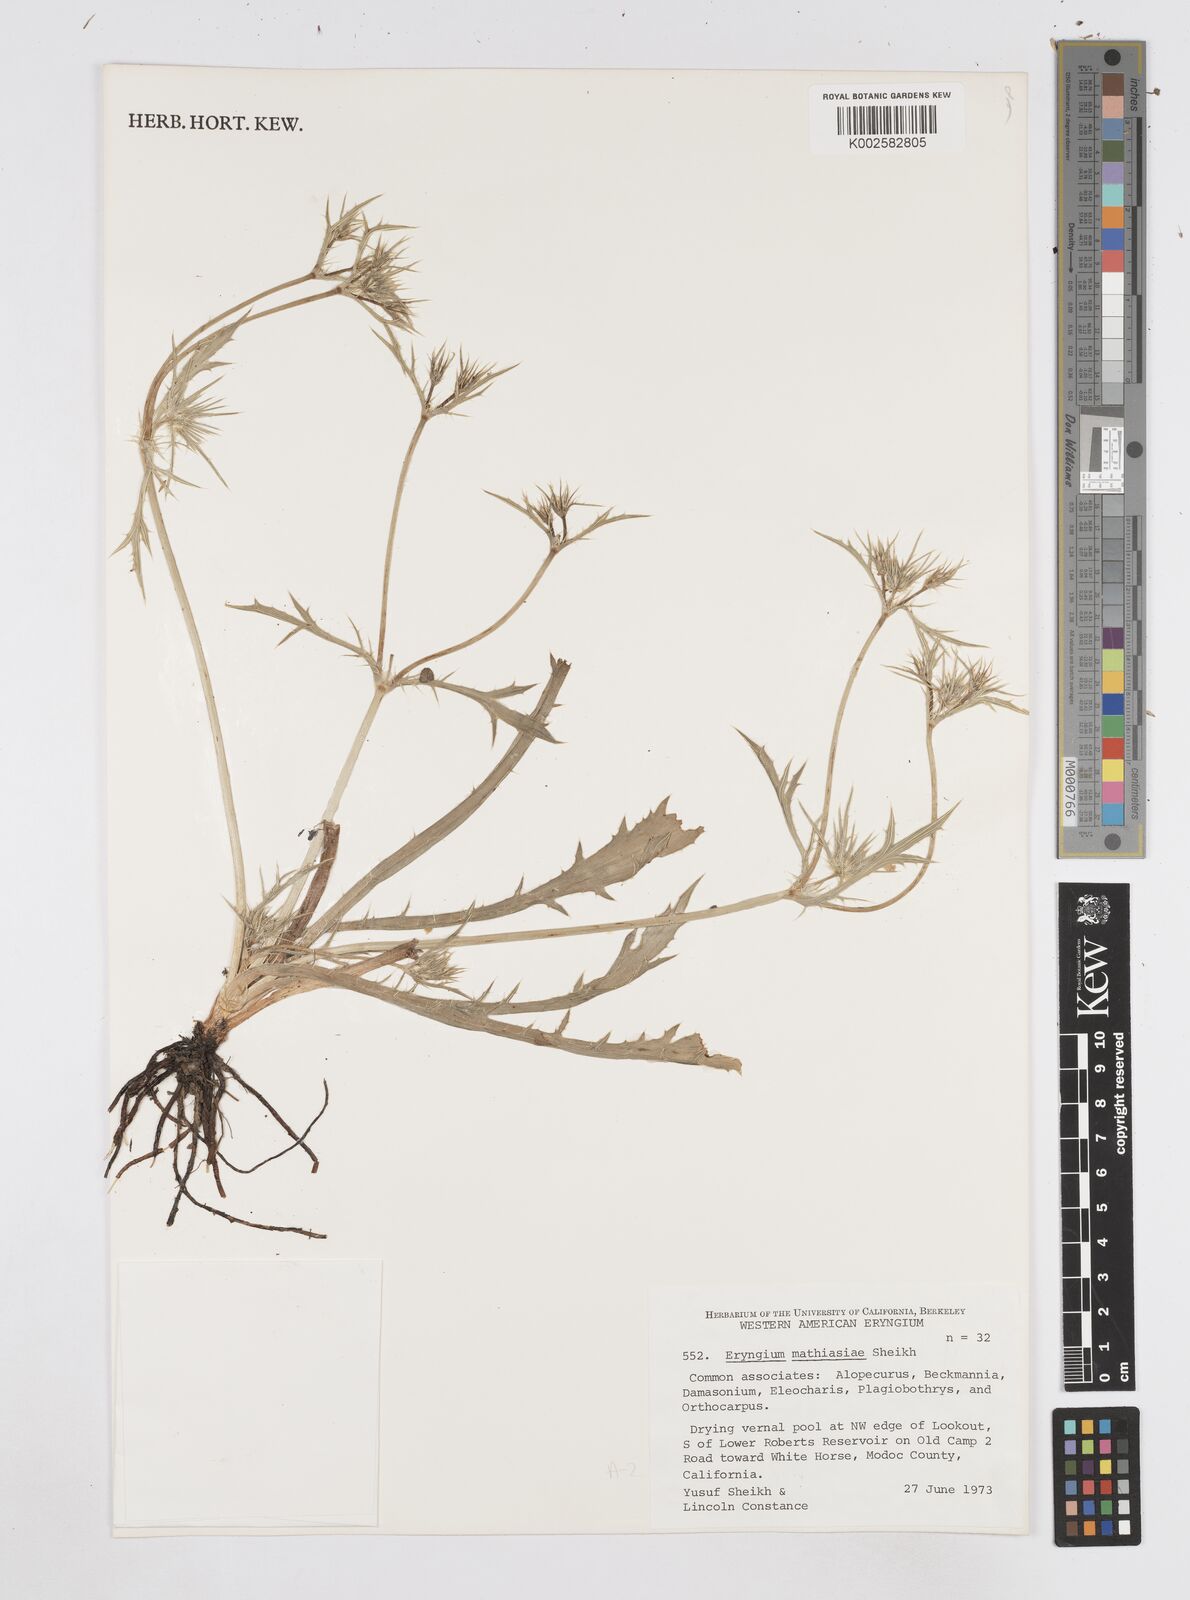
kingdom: Plantae
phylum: Tracheophyta
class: Magnoliopsida
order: Apiales
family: Apiaceae
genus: Eryngium
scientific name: Eryngium mathiasiae
